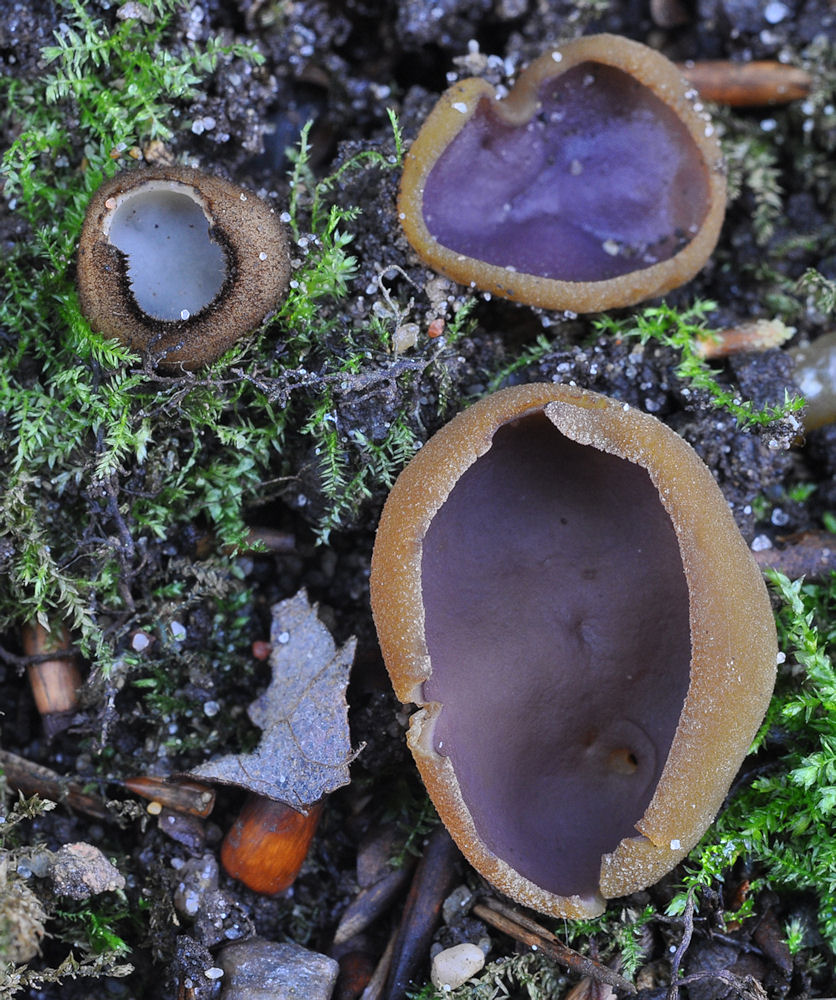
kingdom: Fungi
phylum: Ascomycota
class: Pezizomycetes
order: Pezizales
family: Pezizaceae
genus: Paragalactinia
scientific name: Paragalactinia michelii
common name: gulkødet bægersvamp
